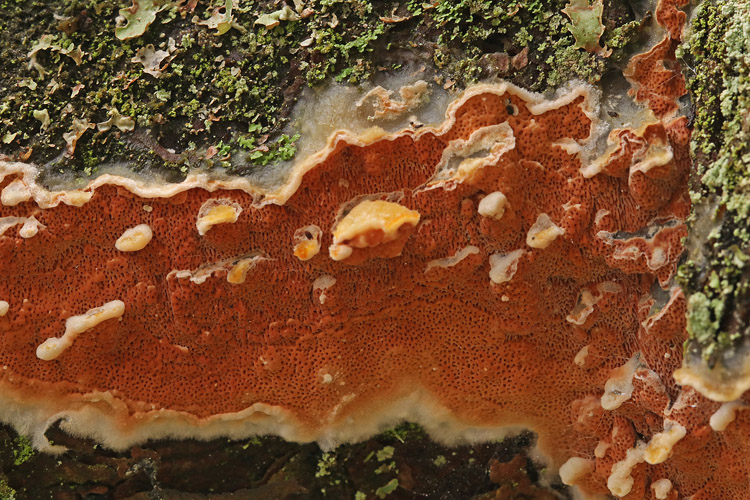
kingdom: Fungi
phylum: Basidiomycota
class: Agaricomycetes
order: Polyporales
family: Irpicaceae
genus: Meruliopsis
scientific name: Meruliopsis taxicola
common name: purpurbrun foldporesvamp
